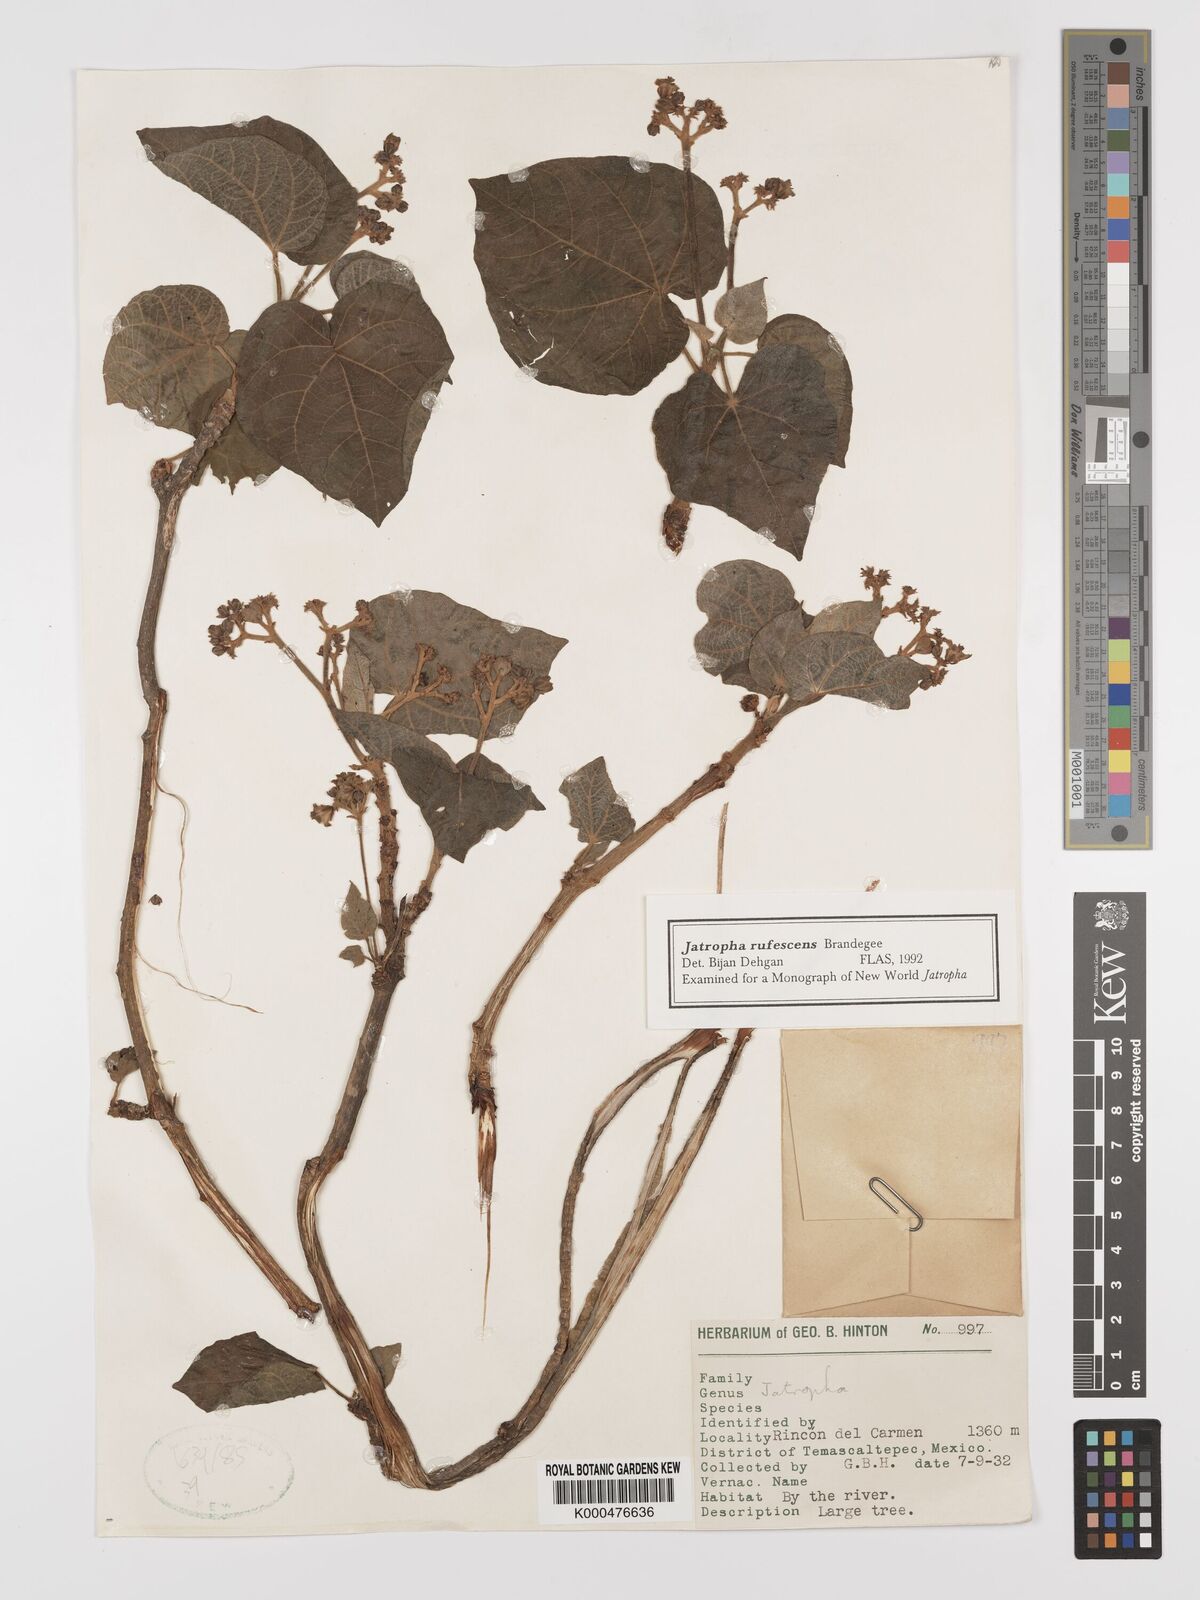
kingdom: Plantae
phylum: Tracheophyta
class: Magnoliopsida
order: Malpighiales
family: Euphorbiaceae
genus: Jatropha
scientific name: Jatropha rufescens
